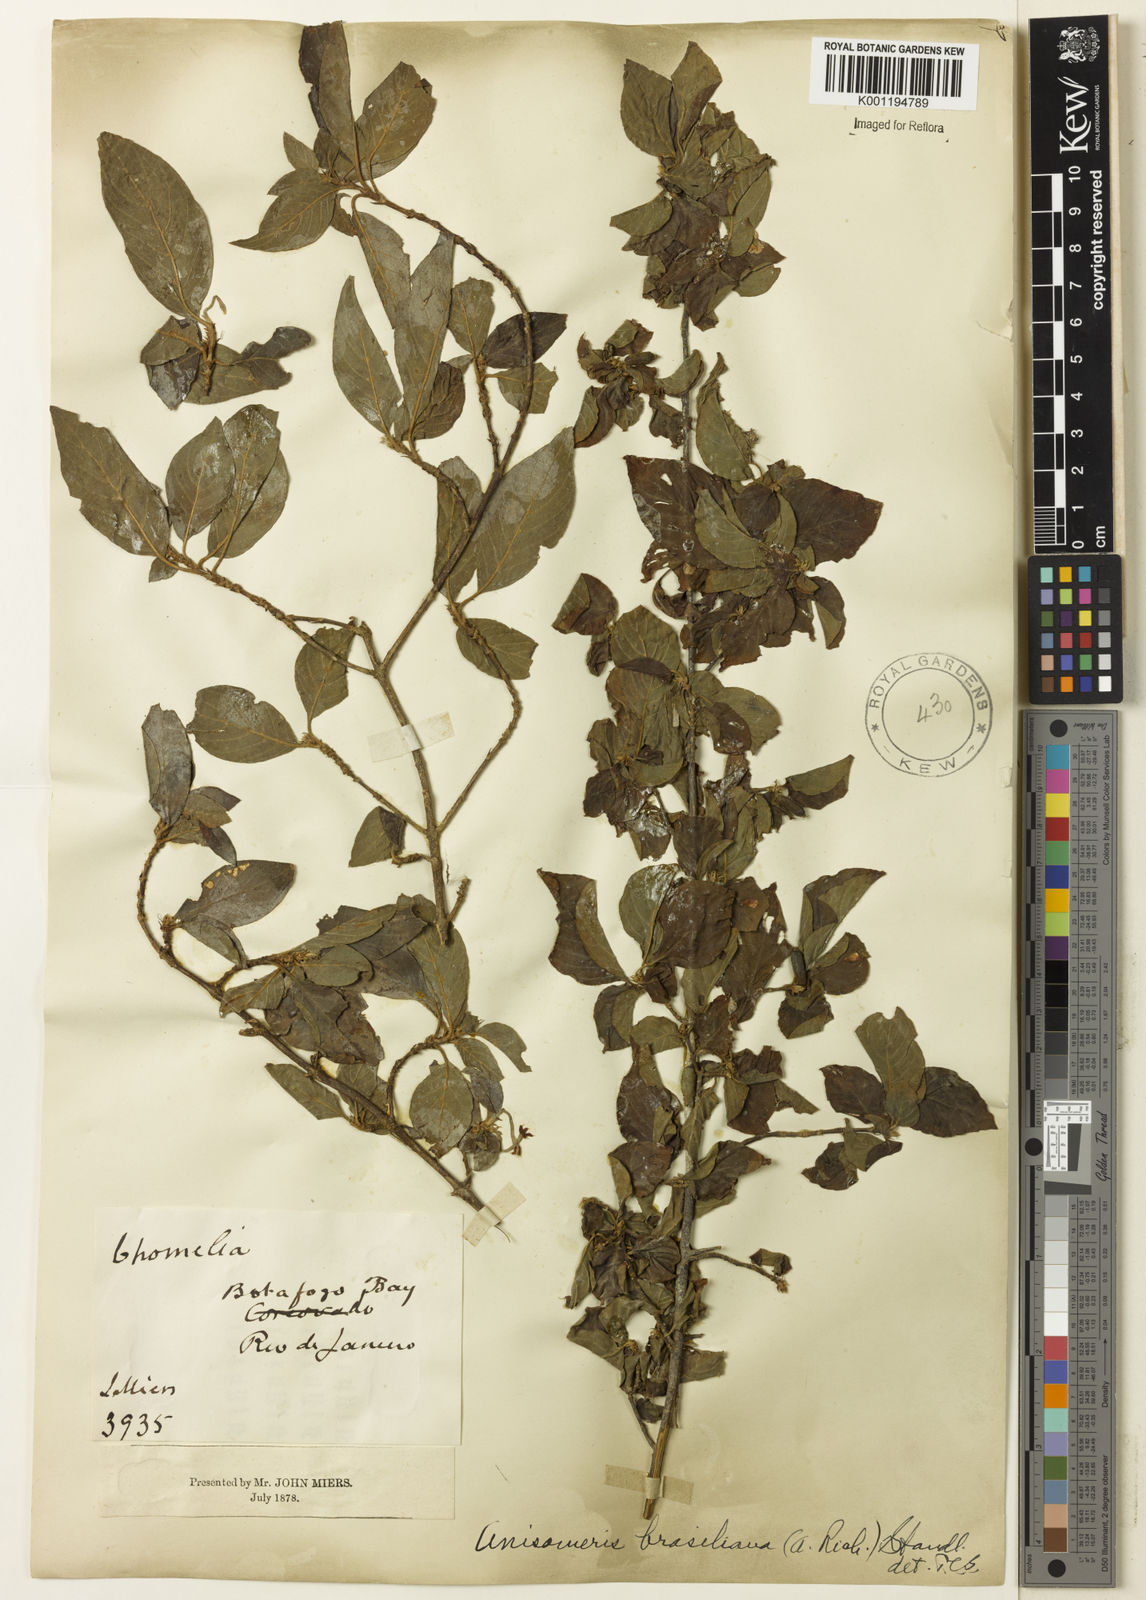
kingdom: Plantae
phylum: Tracheophyta
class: Magnoliopsida
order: Gentianales
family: Rubiaceae
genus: Chomelia
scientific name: Chomelia brasiliana
